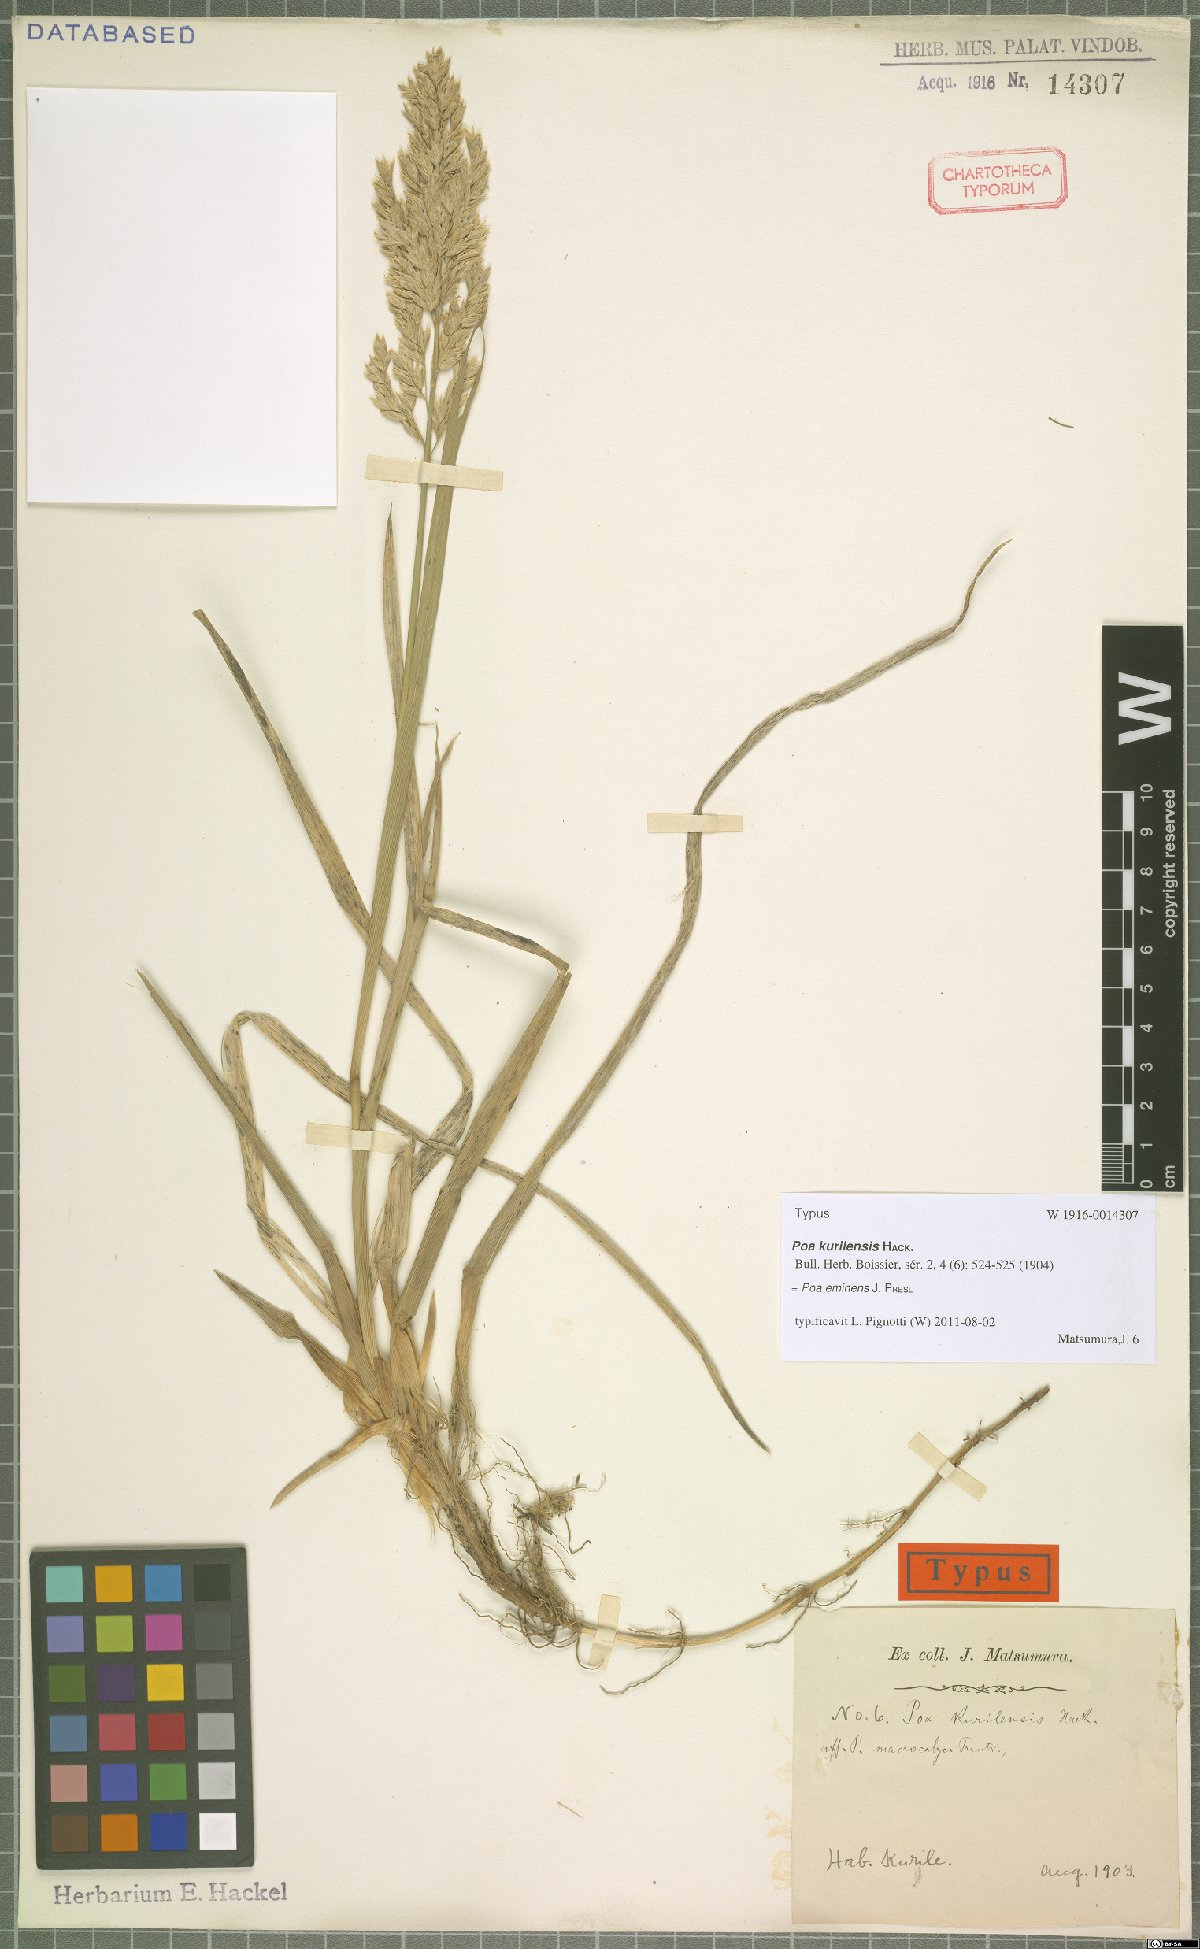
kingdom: Plantae
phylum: Tracheophyta
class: Liliopsida
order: Poales
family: Poaceae
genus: Arctopoa
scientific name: Arctopoa eminens
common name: Eminent bluegrass
